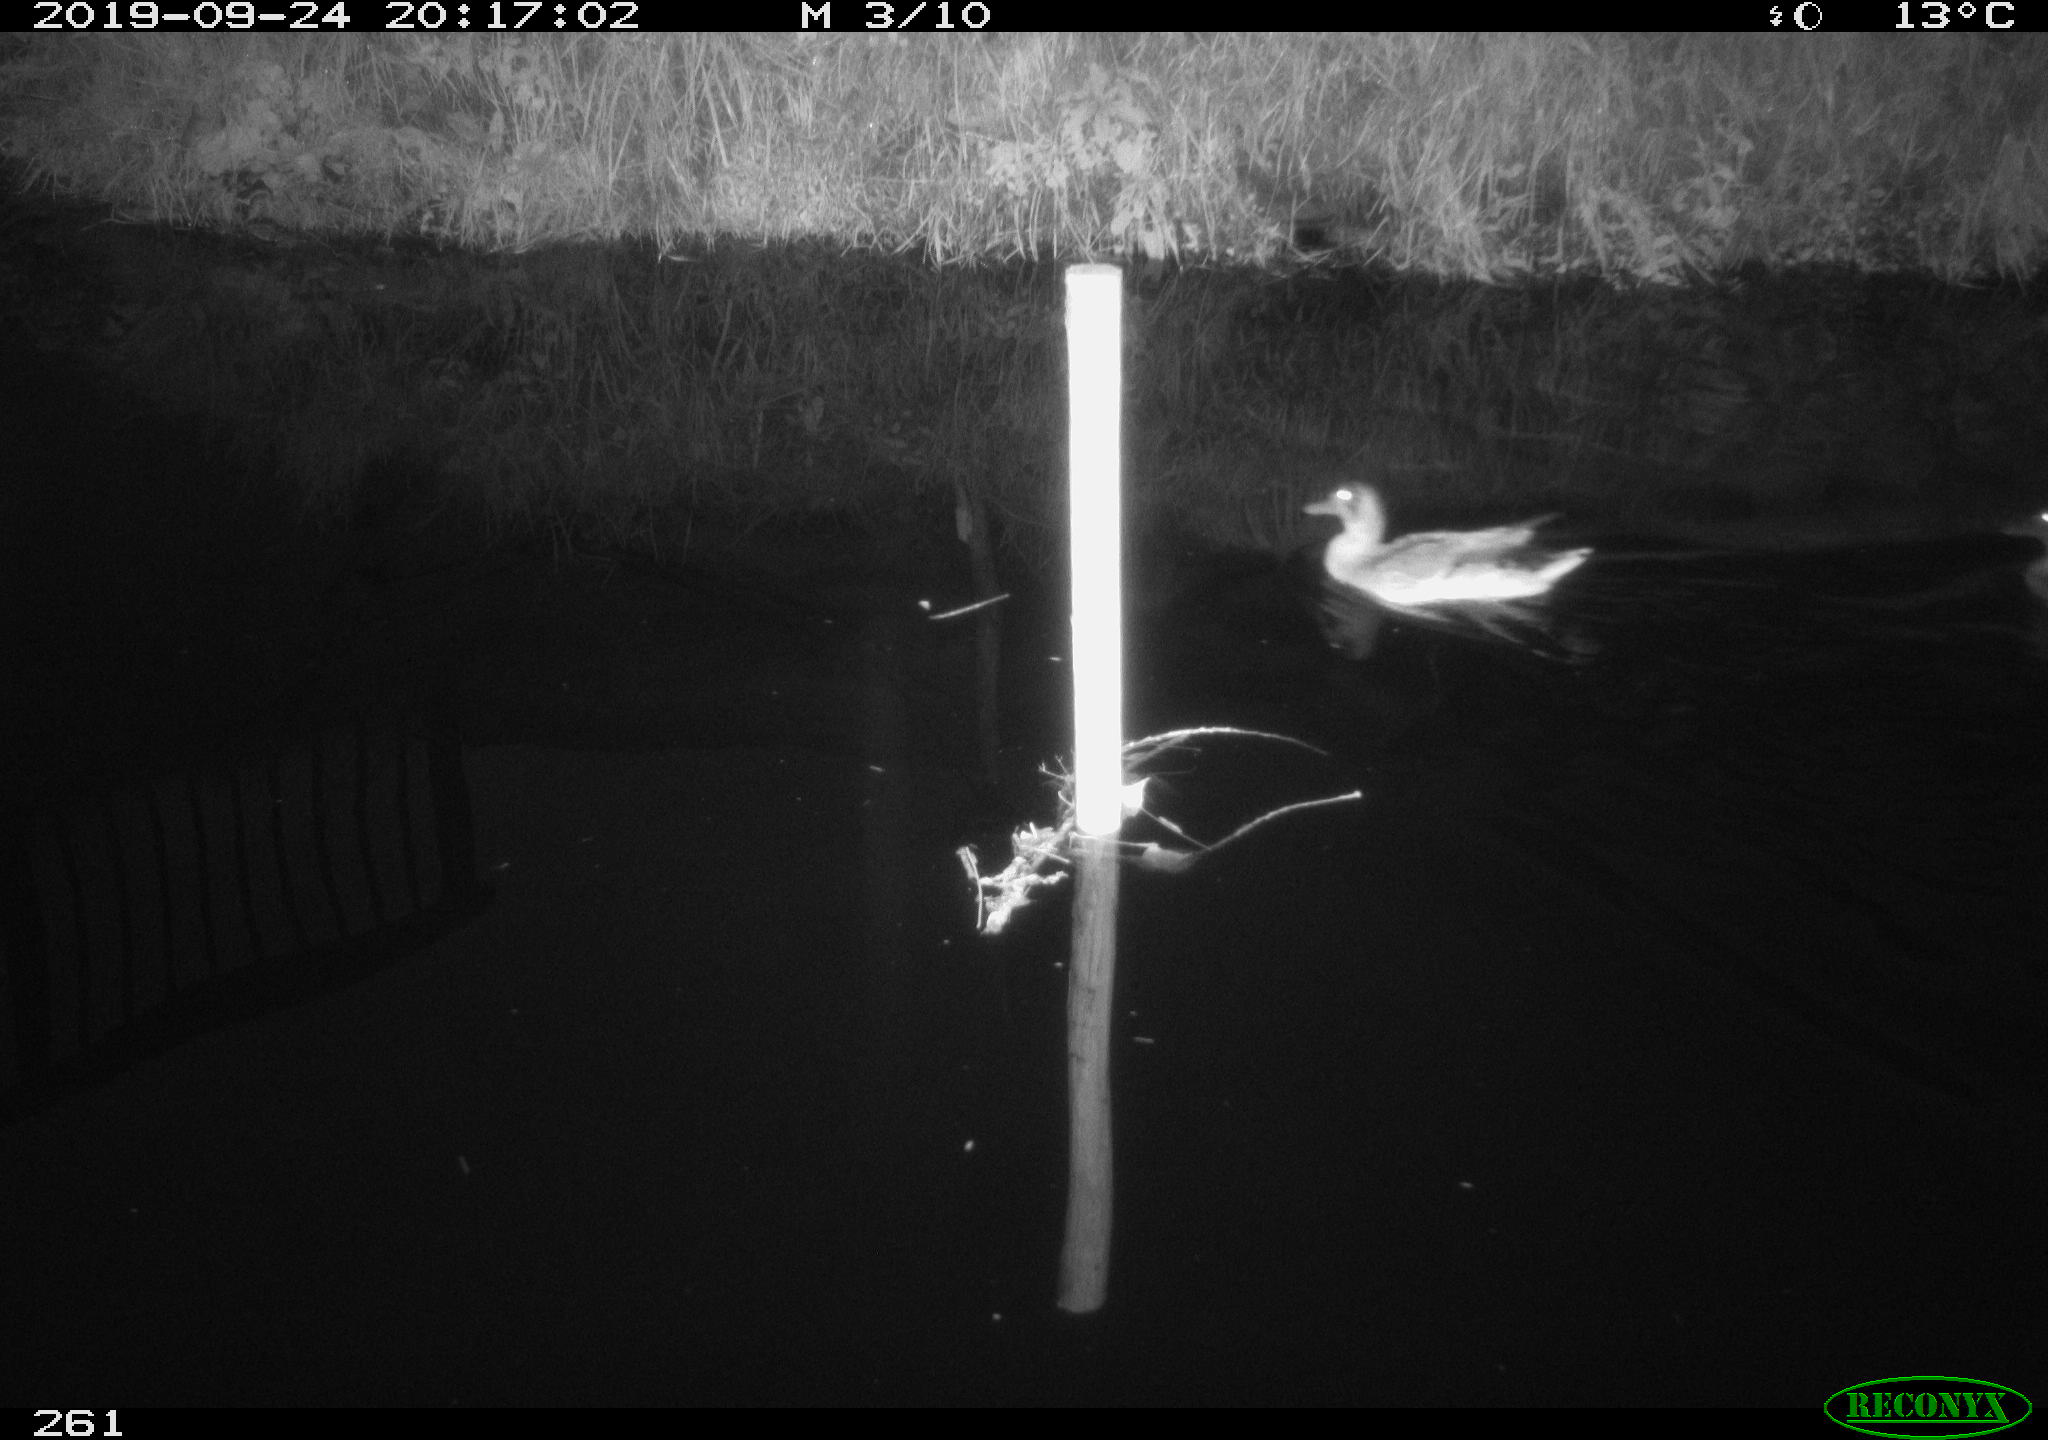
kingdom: Animalia
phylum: Chordata
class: Aves
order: Anseriformes
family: Anatidae
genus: Anas
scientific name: Anas platyrhynchos
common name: Mallard
